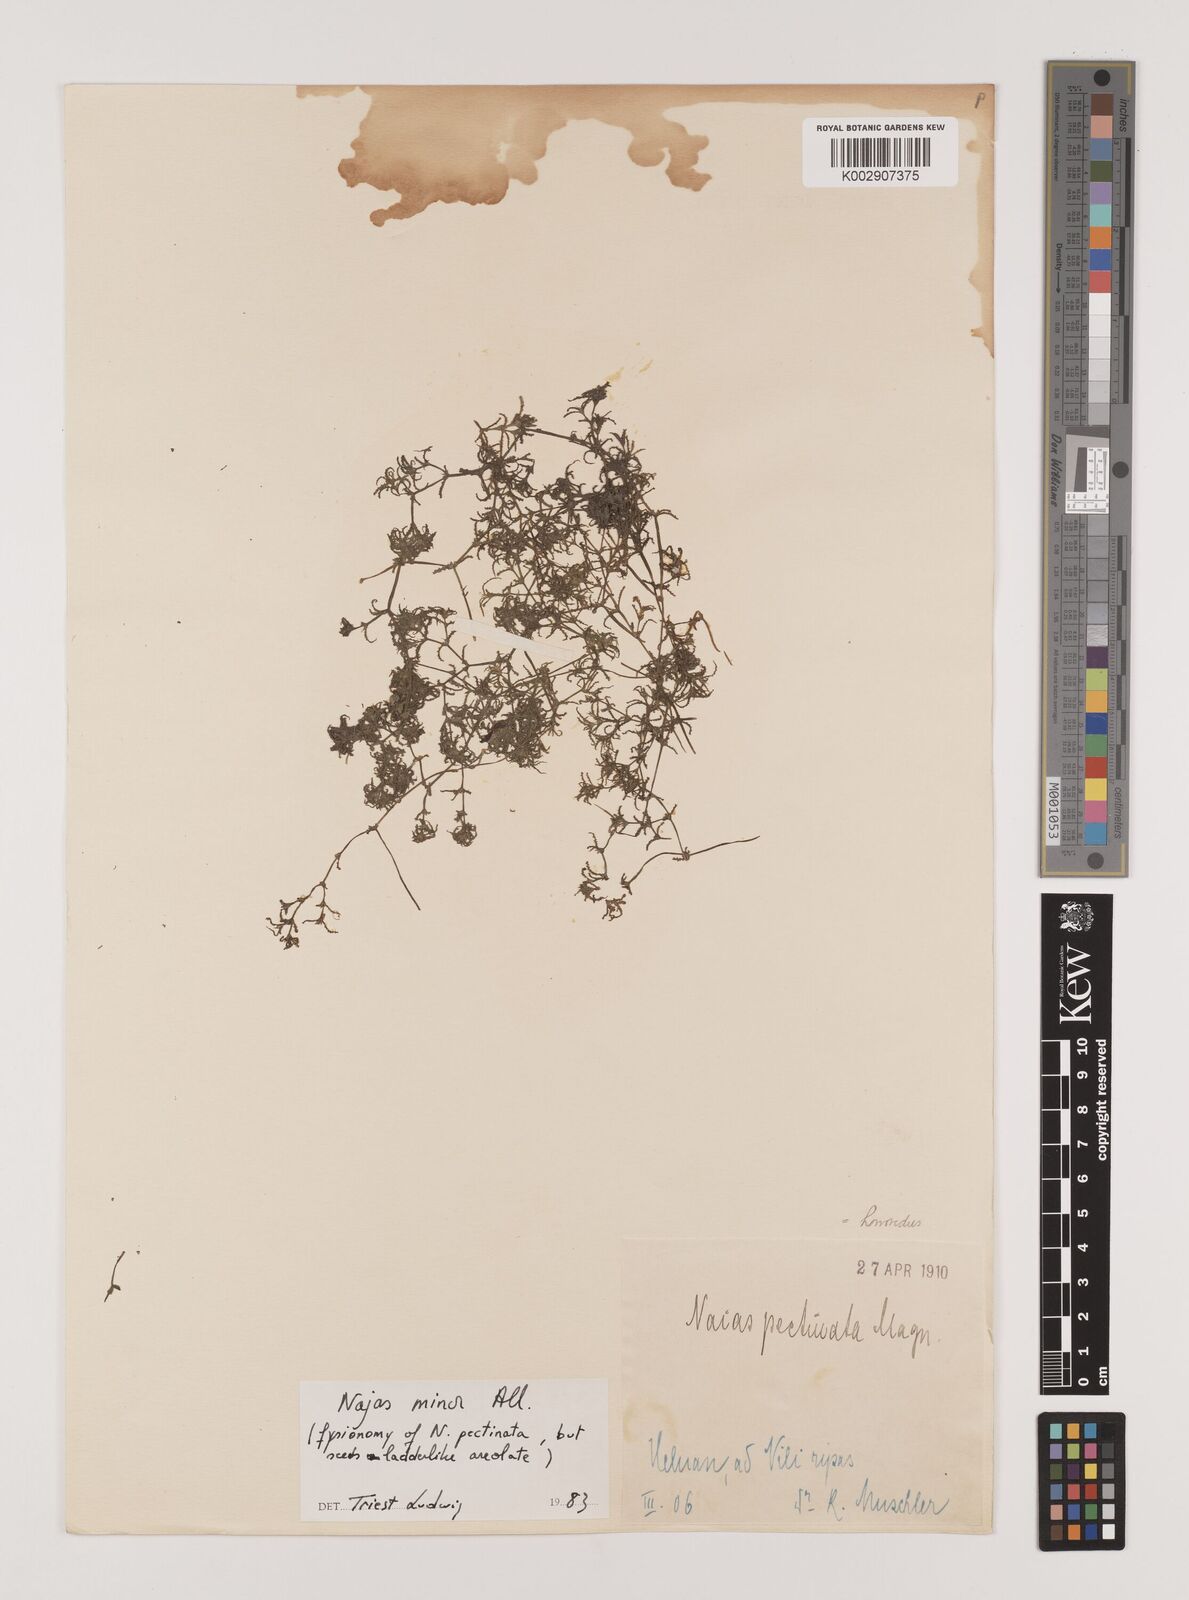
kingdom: Plantae
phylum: Tracheophyta
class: Liliopsida
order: Alismatales
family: Hydrocharitaceae
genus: Najas
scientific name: Najas minor
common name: Brittle naiad
